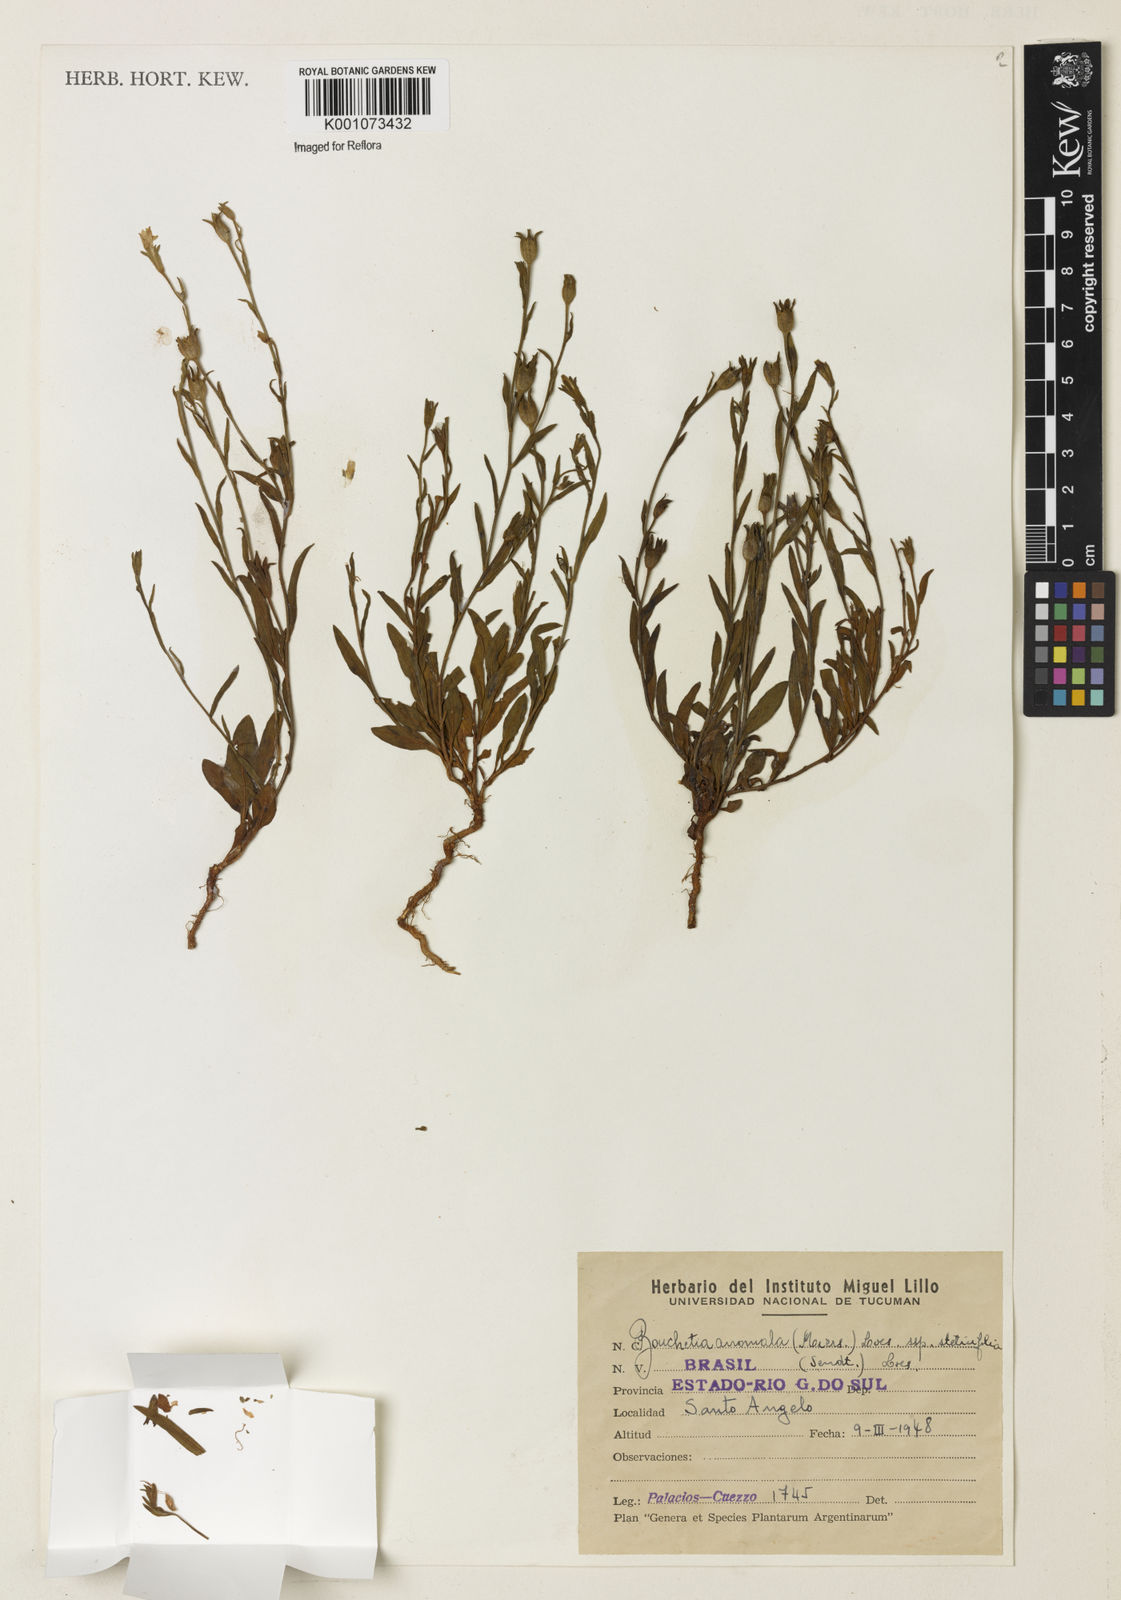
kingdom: Plantae
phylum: Tracheophyta
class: Magnoliopsida
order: Solanales
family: Solanaceae
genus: Salpiglossis
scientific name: Salpiglossis anomala
